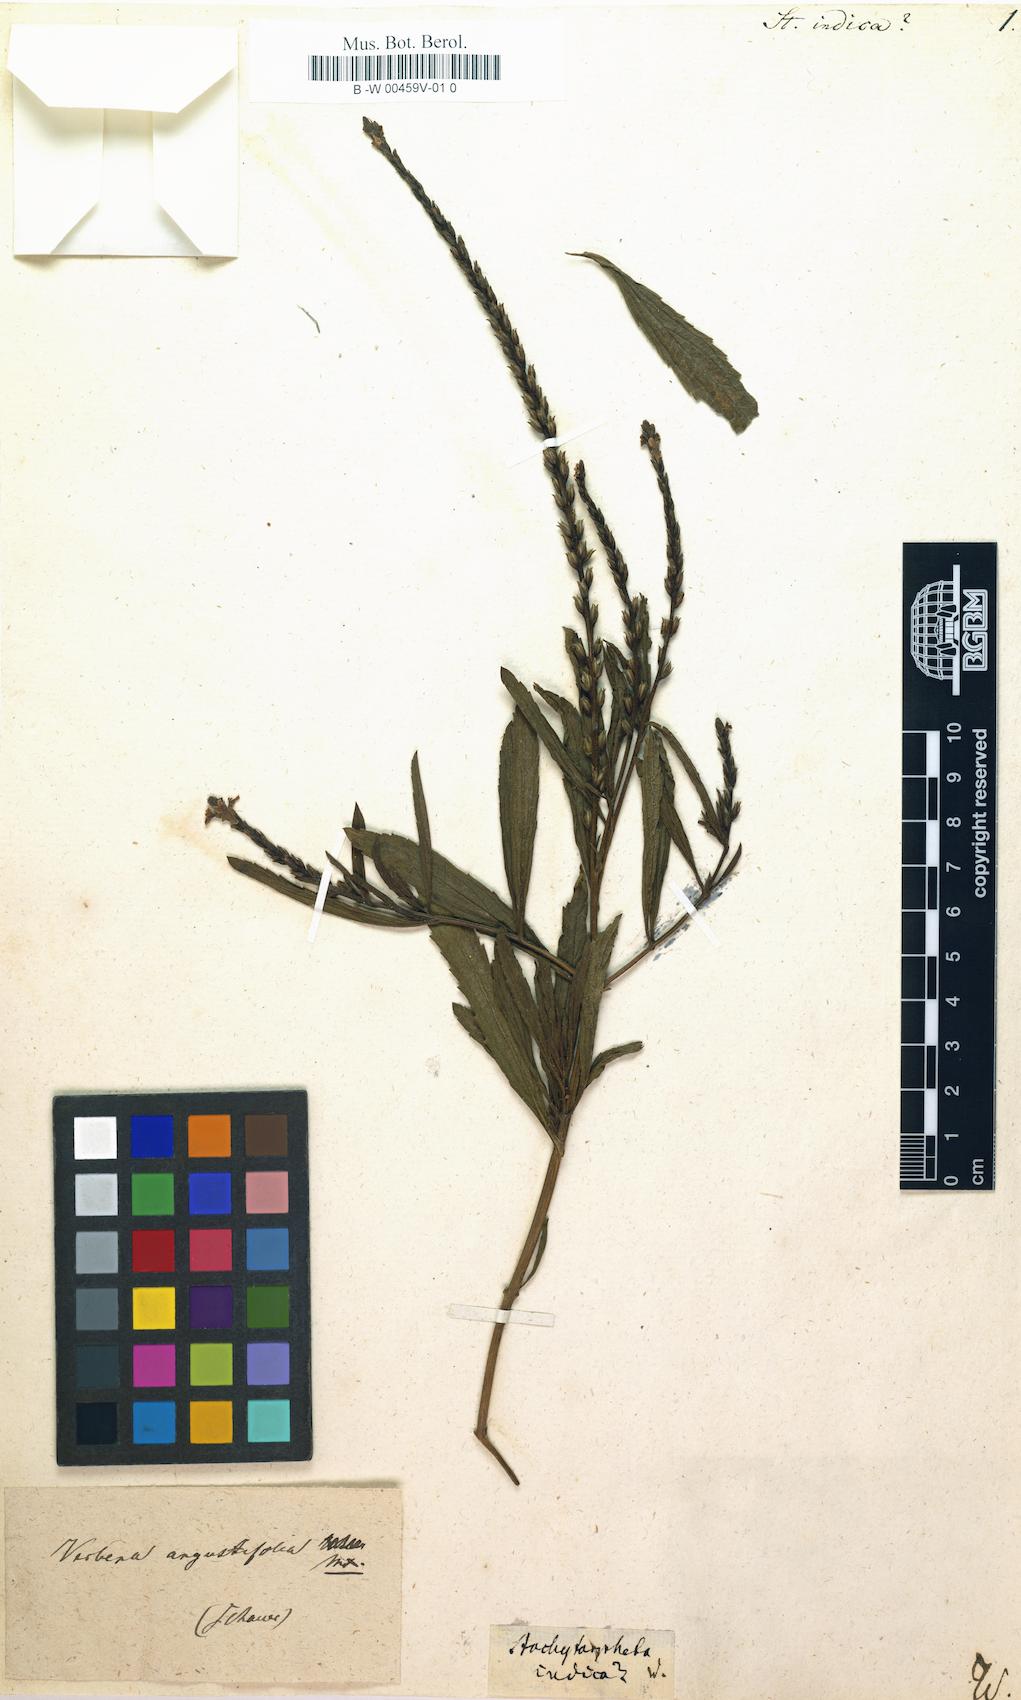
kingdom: Plantae
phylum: Tracheophyta
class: Magnoliopsida
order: Lamiales
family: Verbenaceae
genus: Stachytarpheta
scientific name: Stachytarpheta indica
